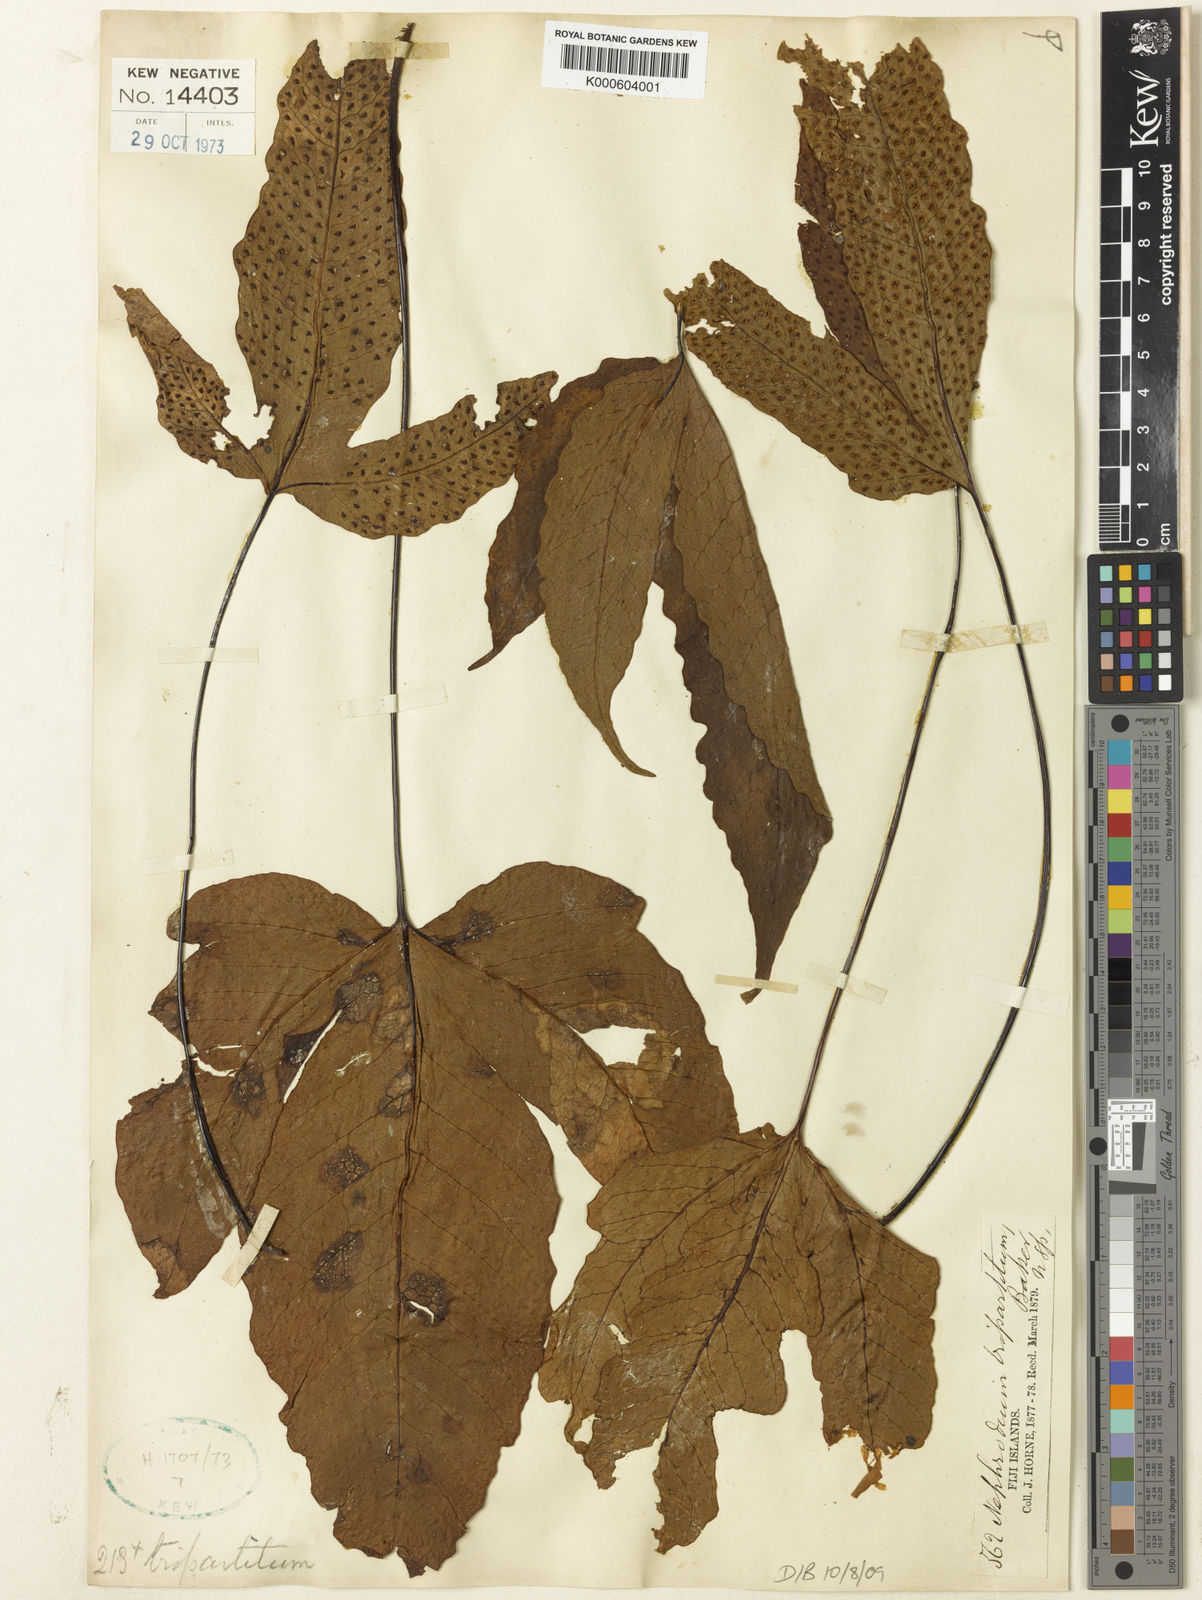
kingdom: Plantae
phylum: Tracheophyta
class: Polypodiopsida
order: Polypodiales
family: Tectariaceae
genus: Tectaria
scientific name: Tectaria tripartita
